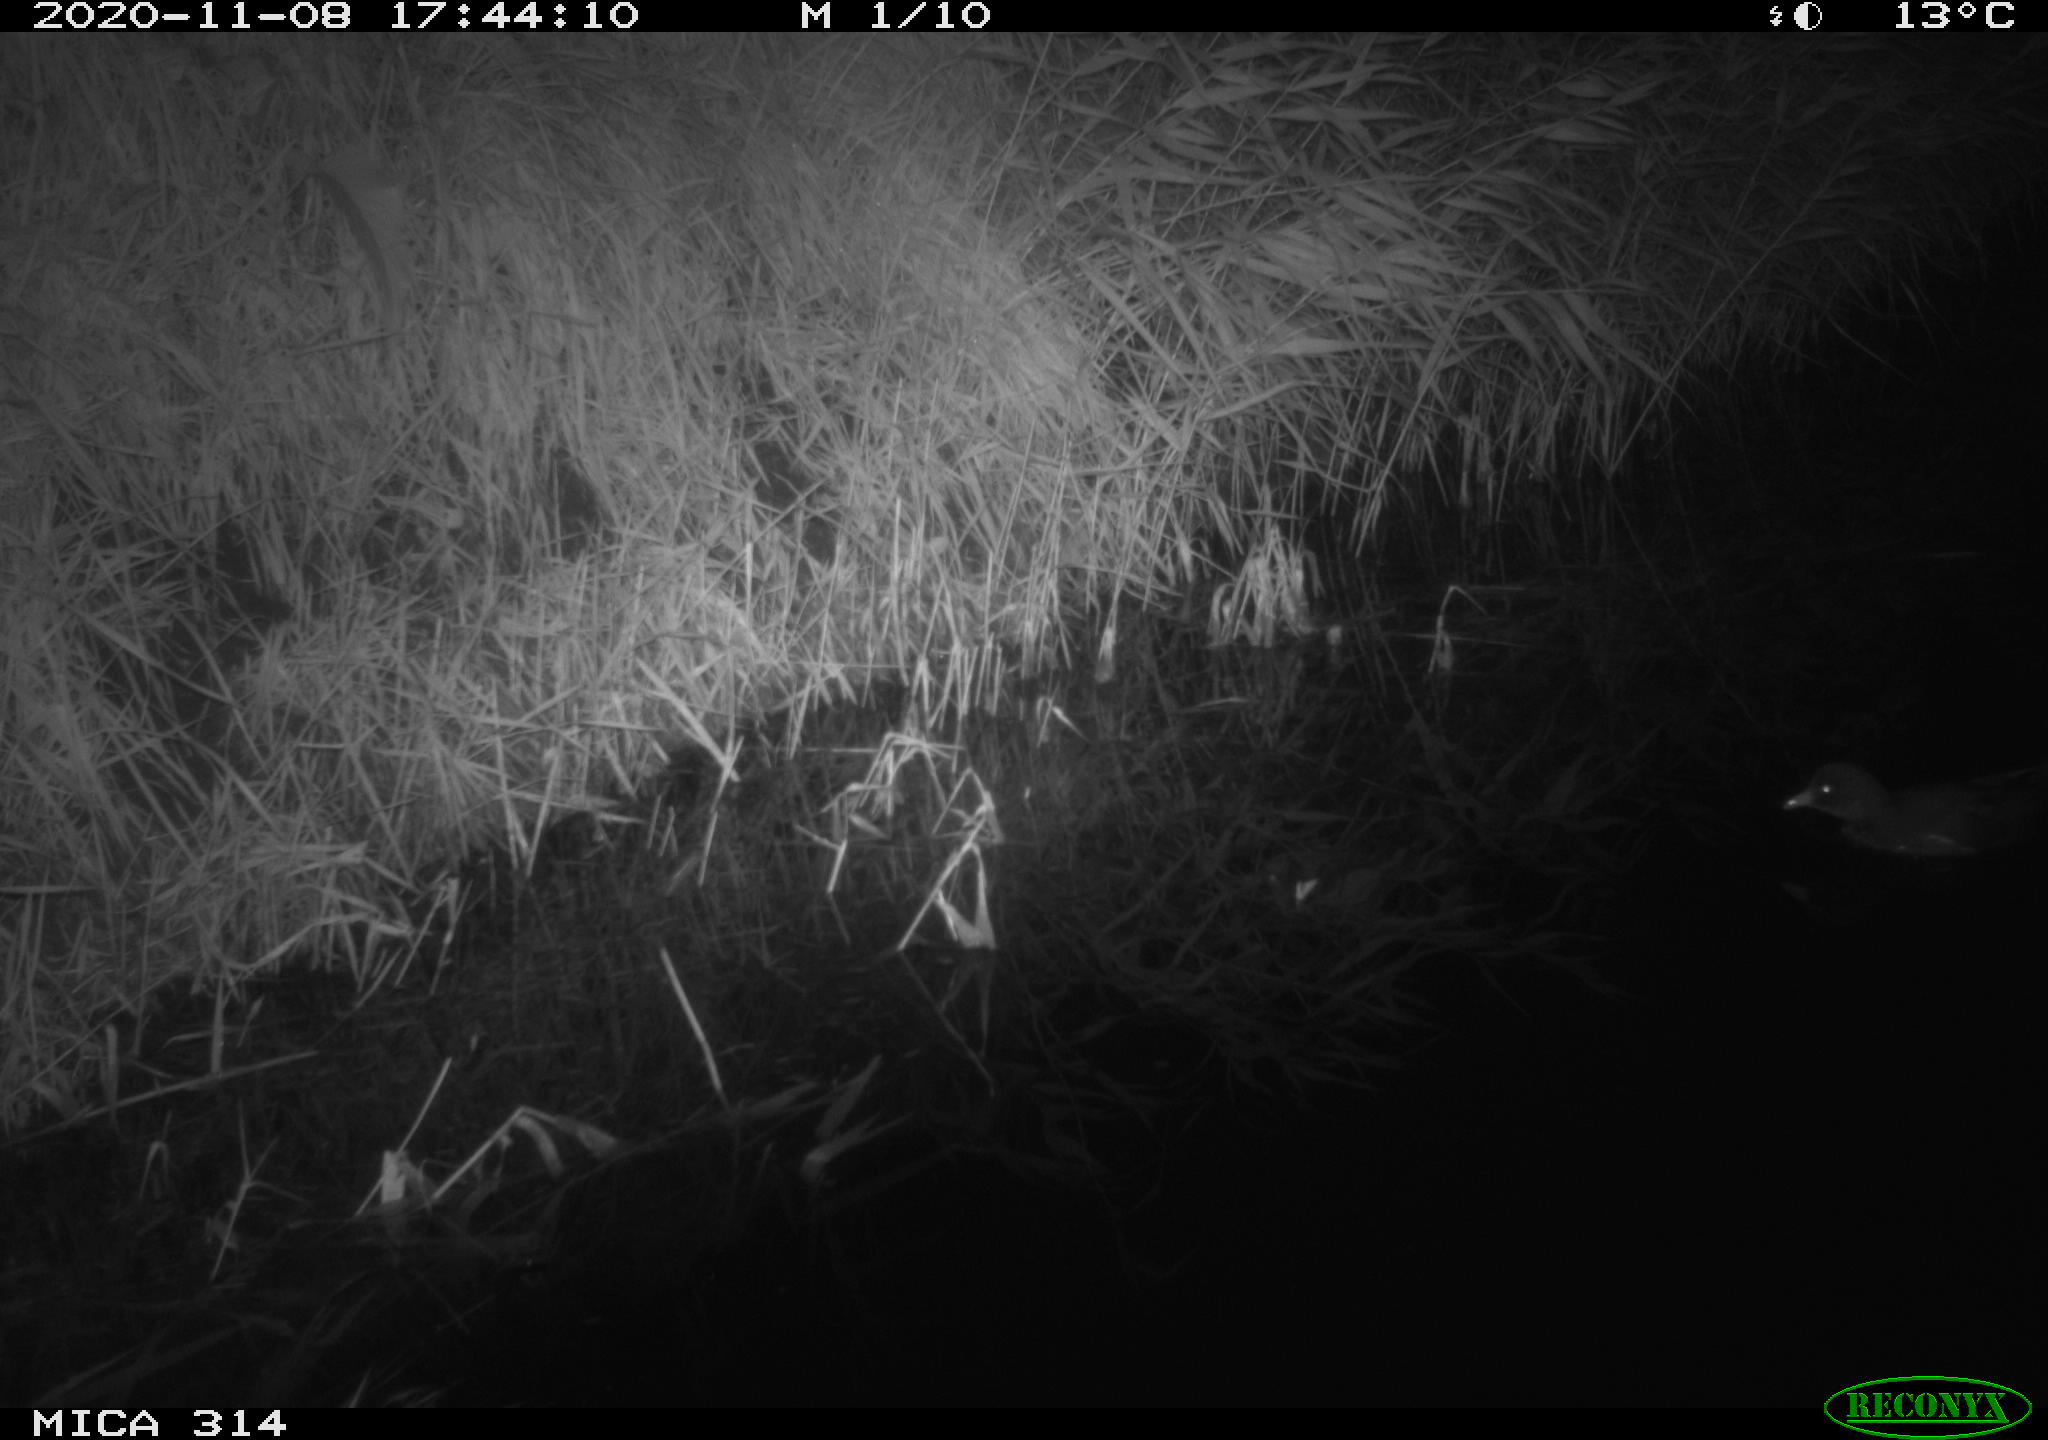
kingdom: Animalia
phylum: Chordata
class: Aves
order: Gruiformes
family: Rallidae
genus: Gallinula
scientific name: Gallinula chloropus
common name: Common moorhen
